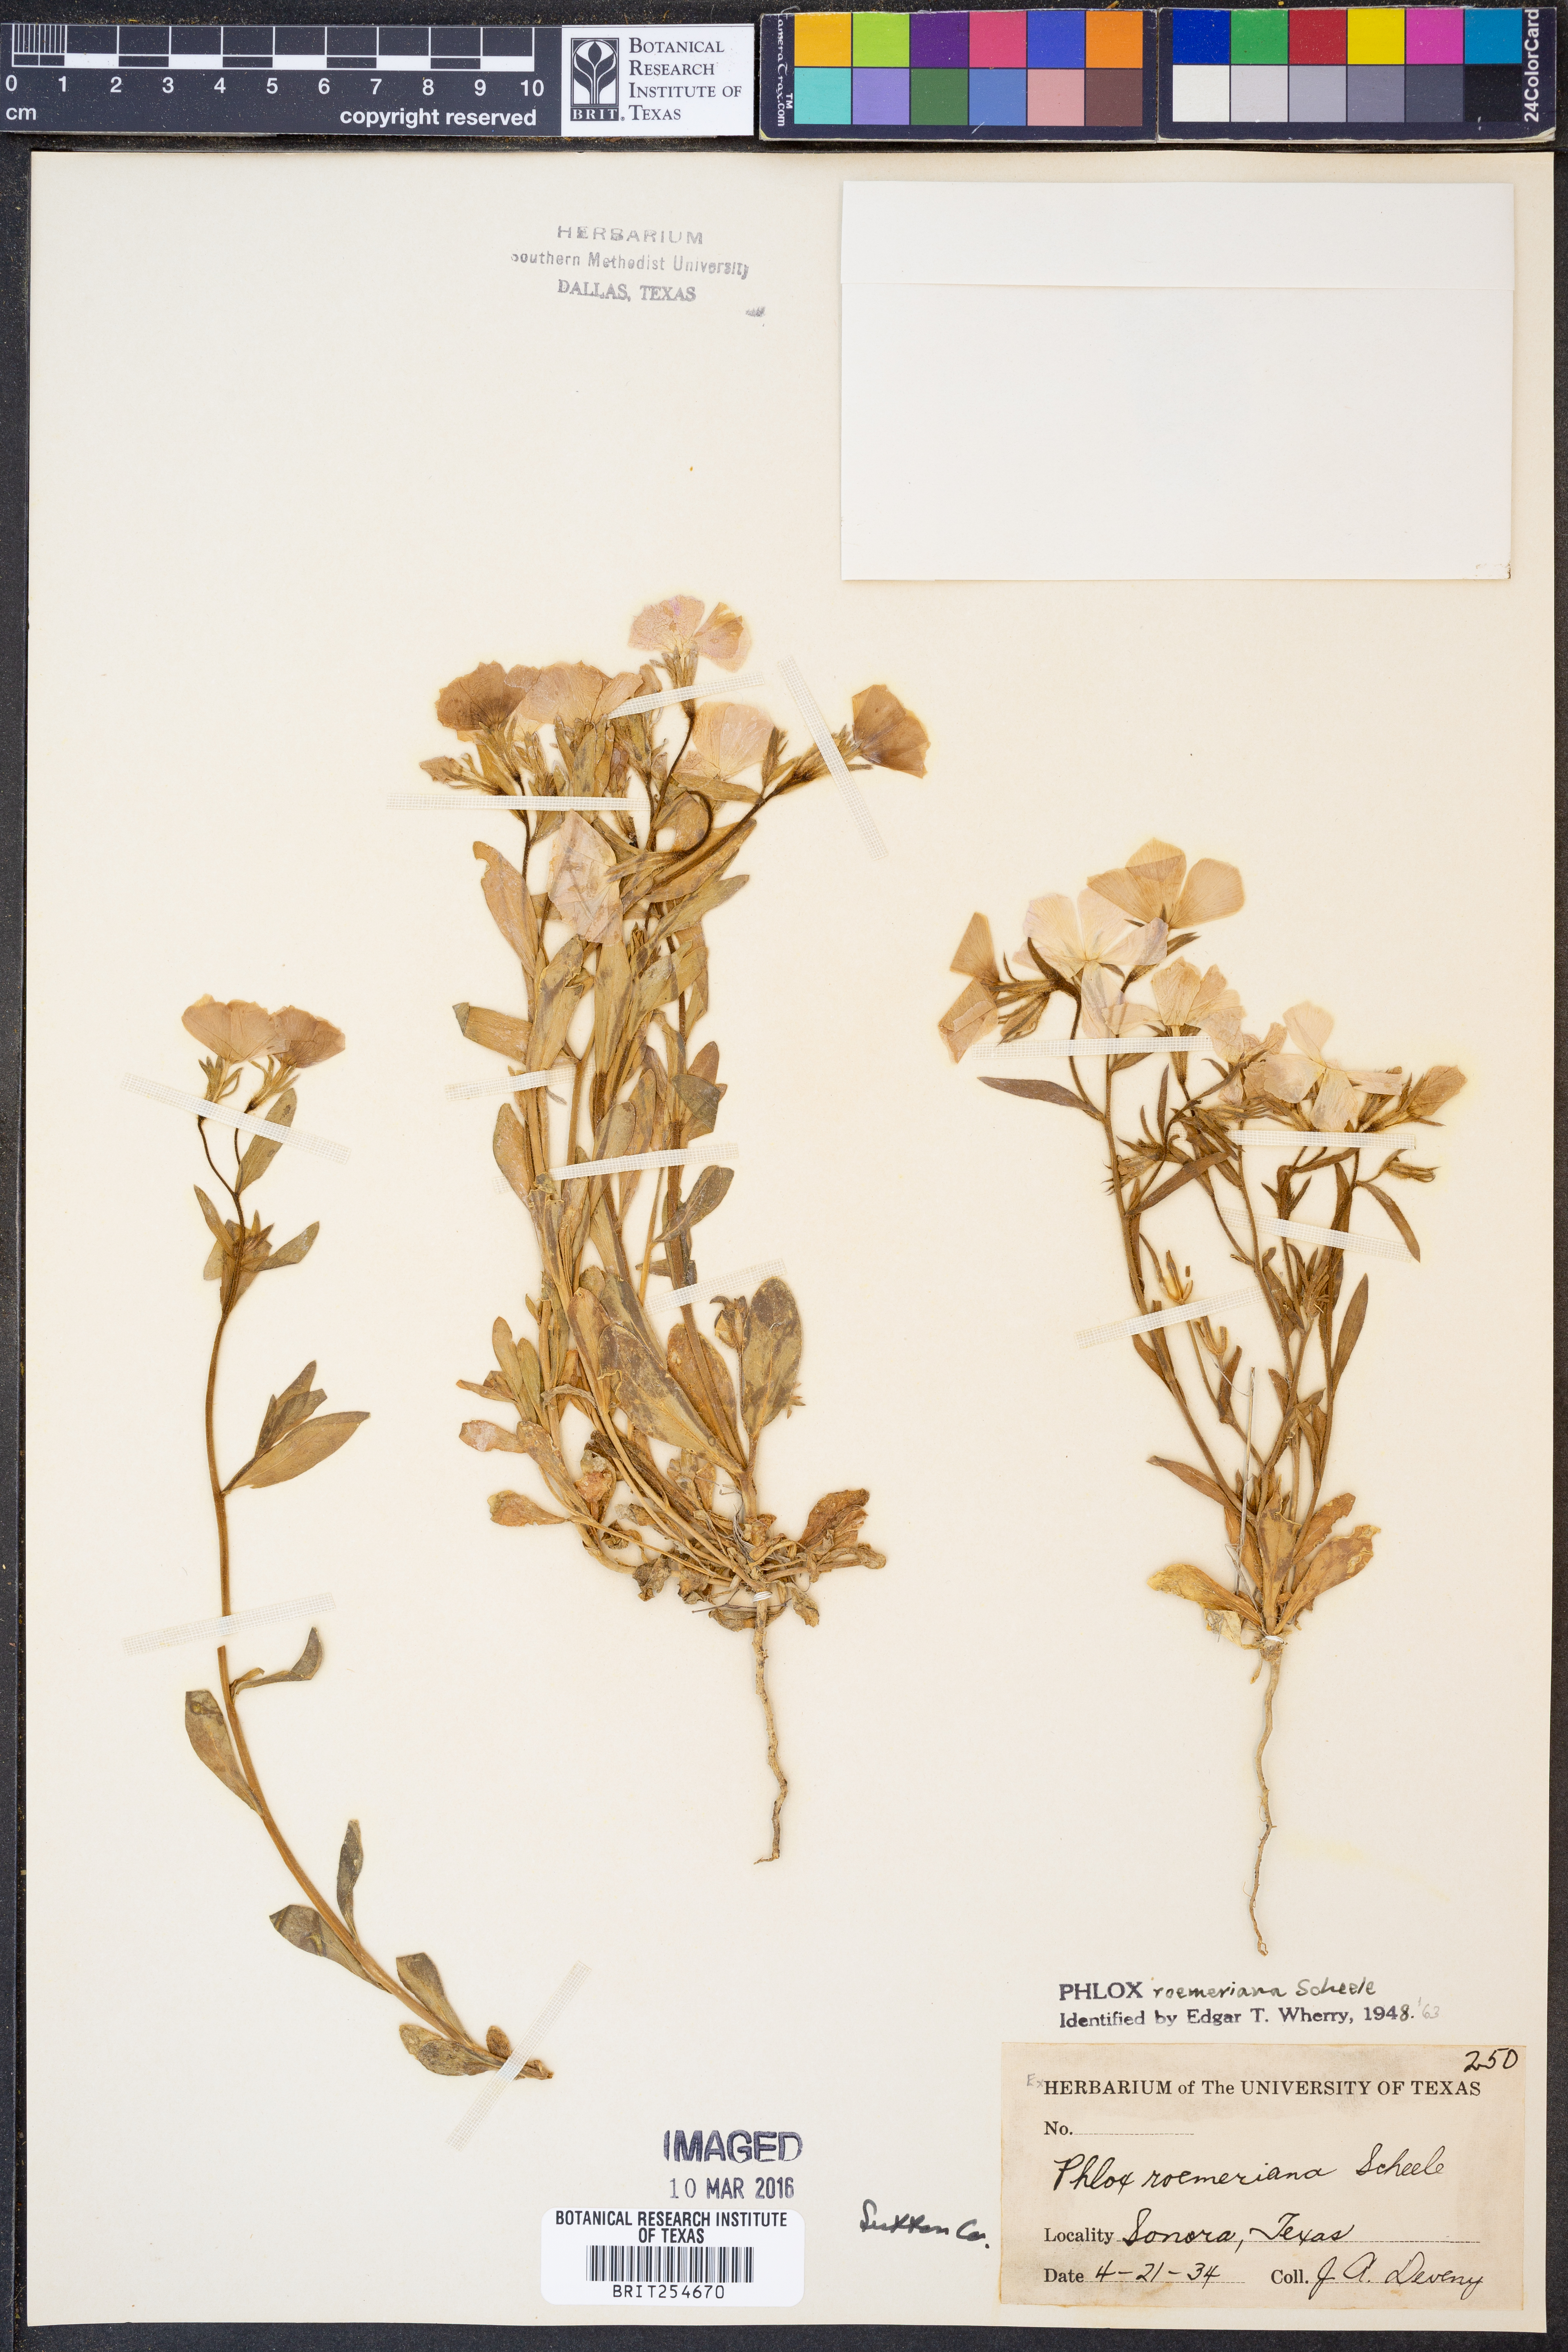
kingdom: Plantae
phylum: Tracheophyta
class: Magnoliopsida
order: Ericales
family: Polemoniaceae
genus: Phlox
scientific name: Phlox roemeriana
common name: Roemer's phlox
